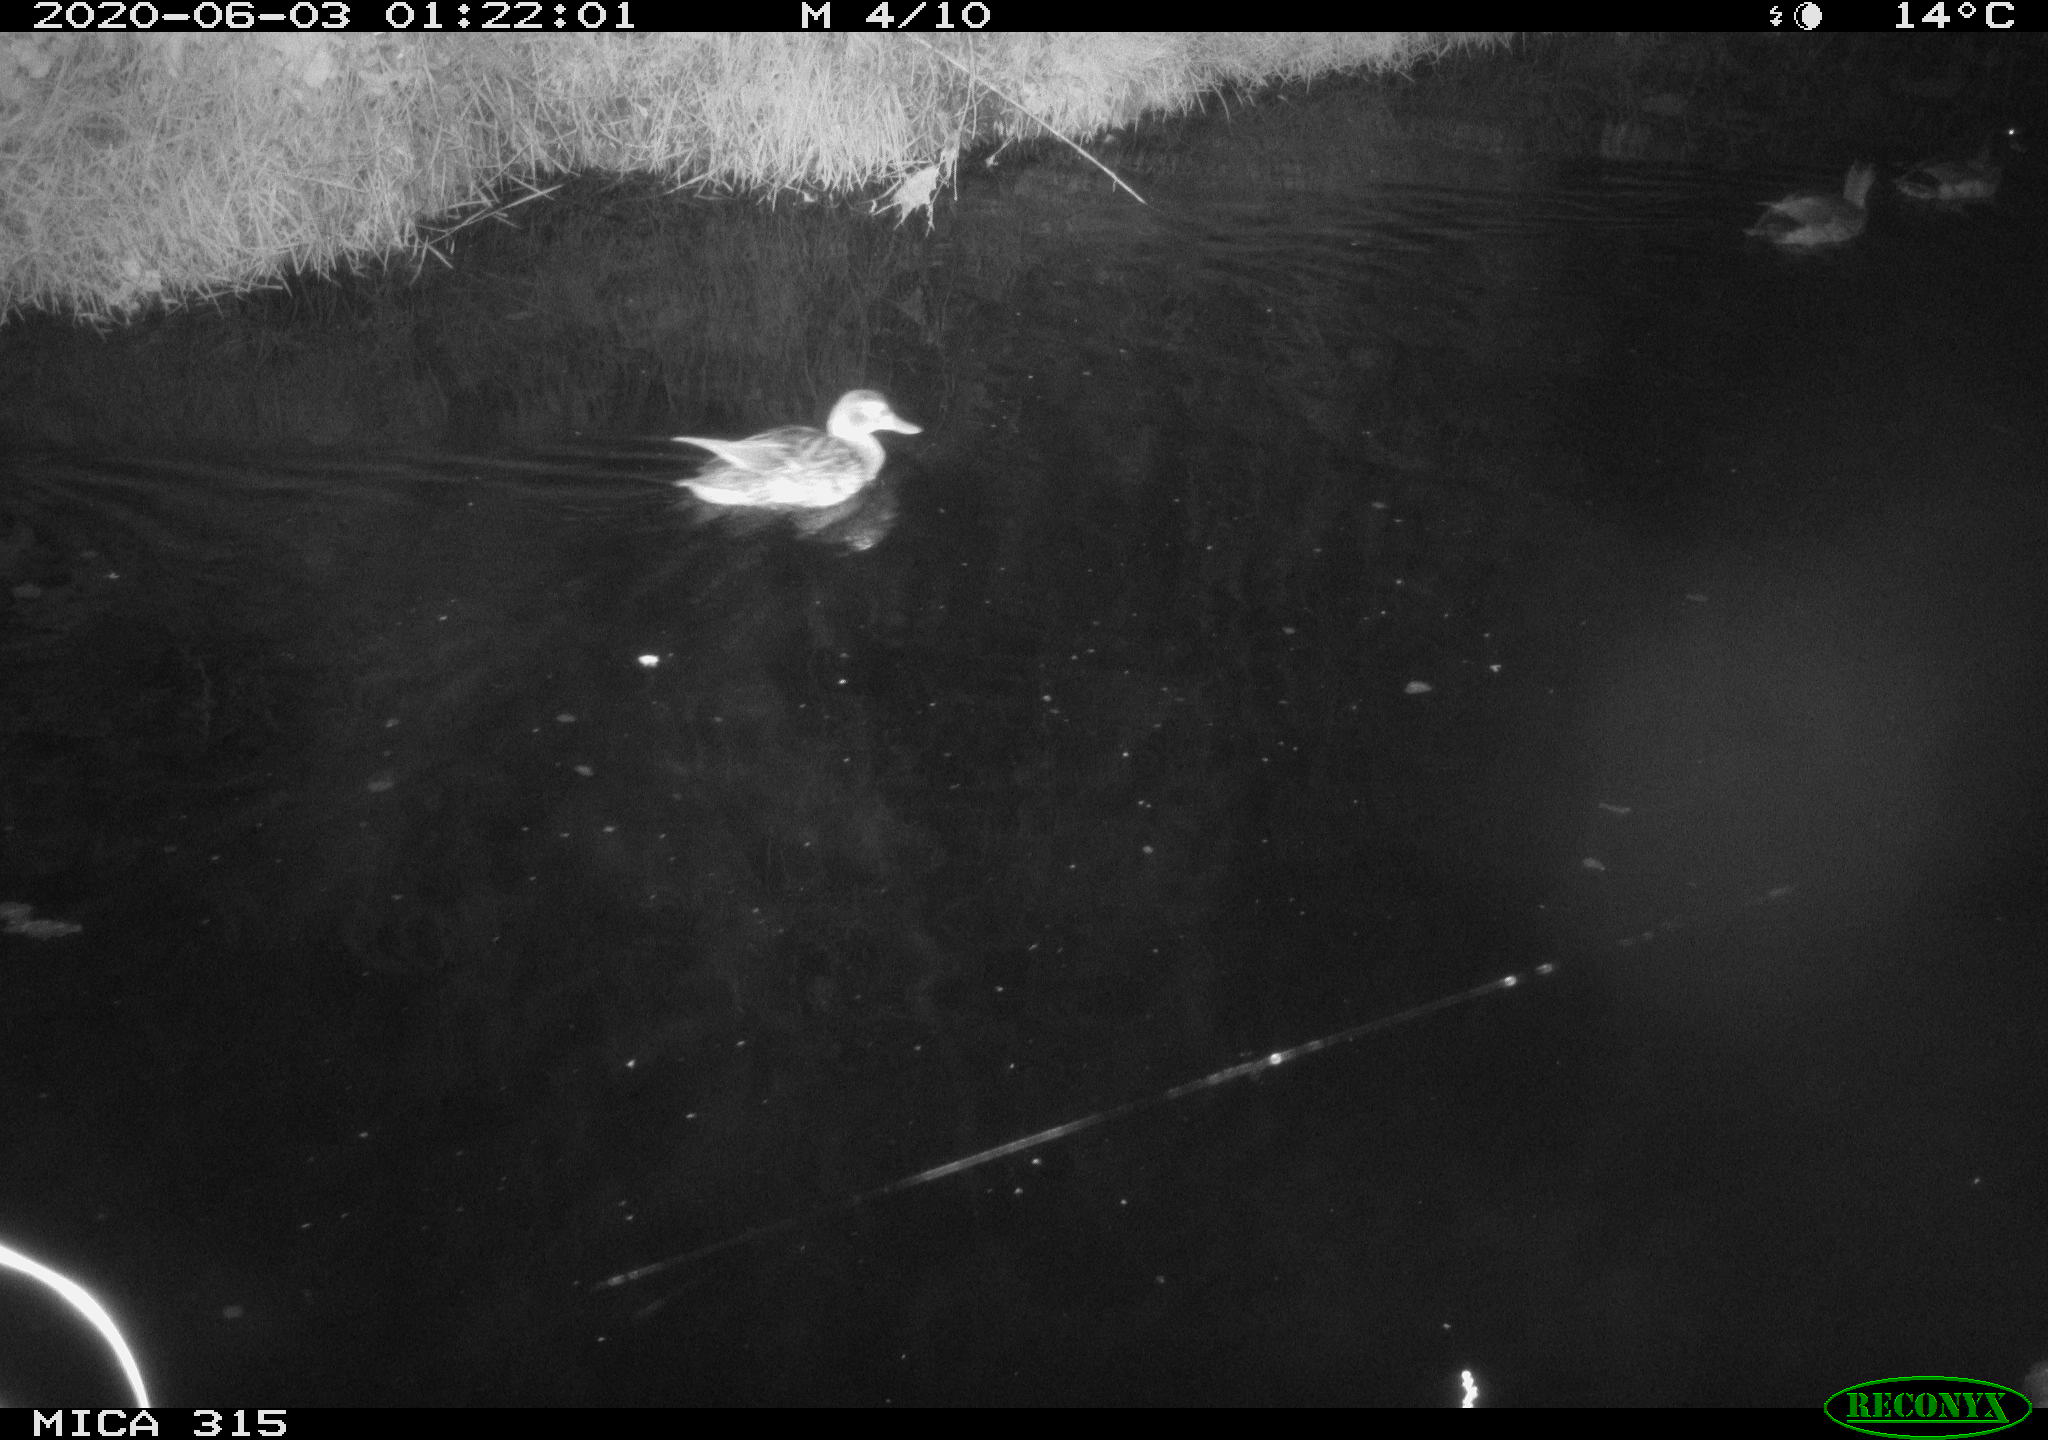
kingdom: Animalia
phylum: Chordata
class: Aves
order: Anseriformes
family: Anatidae
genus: Anas
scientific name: Anas platyrhynchos
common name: Mallard
